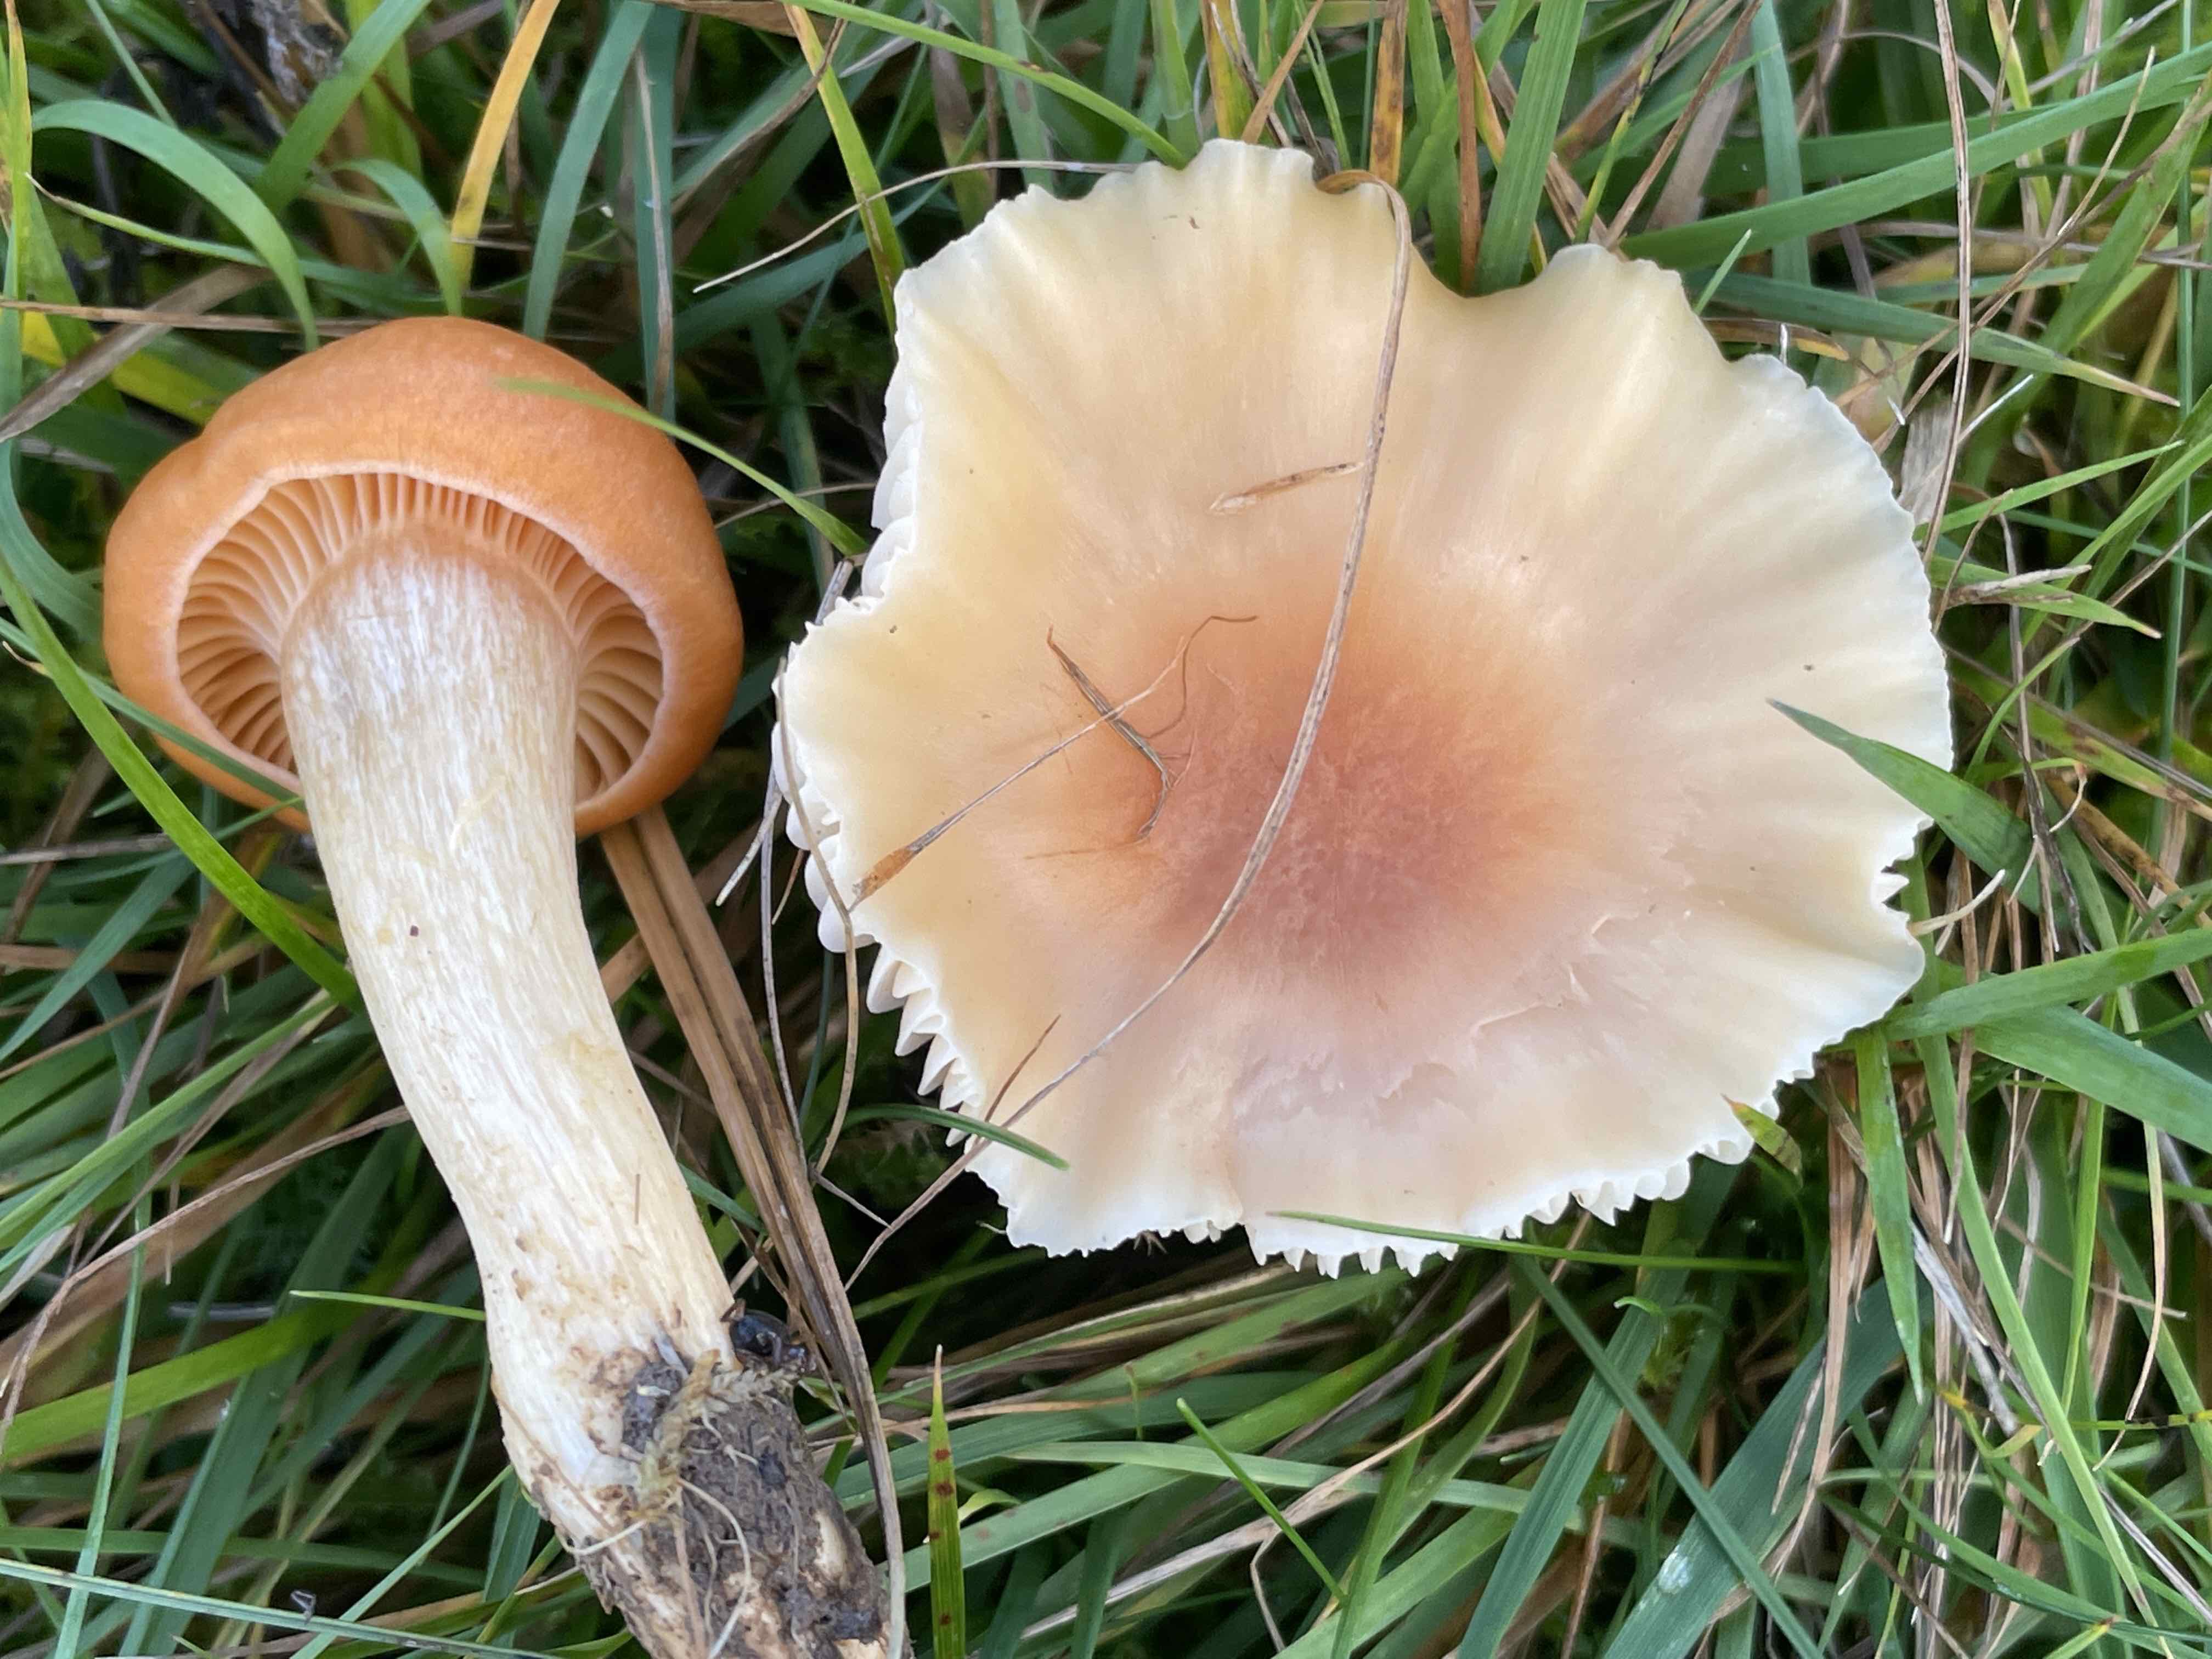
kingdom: Fungi
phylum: Basidiomycota
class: Agaricomycetes
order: Agaricales
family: Hygrophoraceae
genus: Cuphophyllus
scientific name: Cuphophyllus pratensis
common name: eng-vokshat
